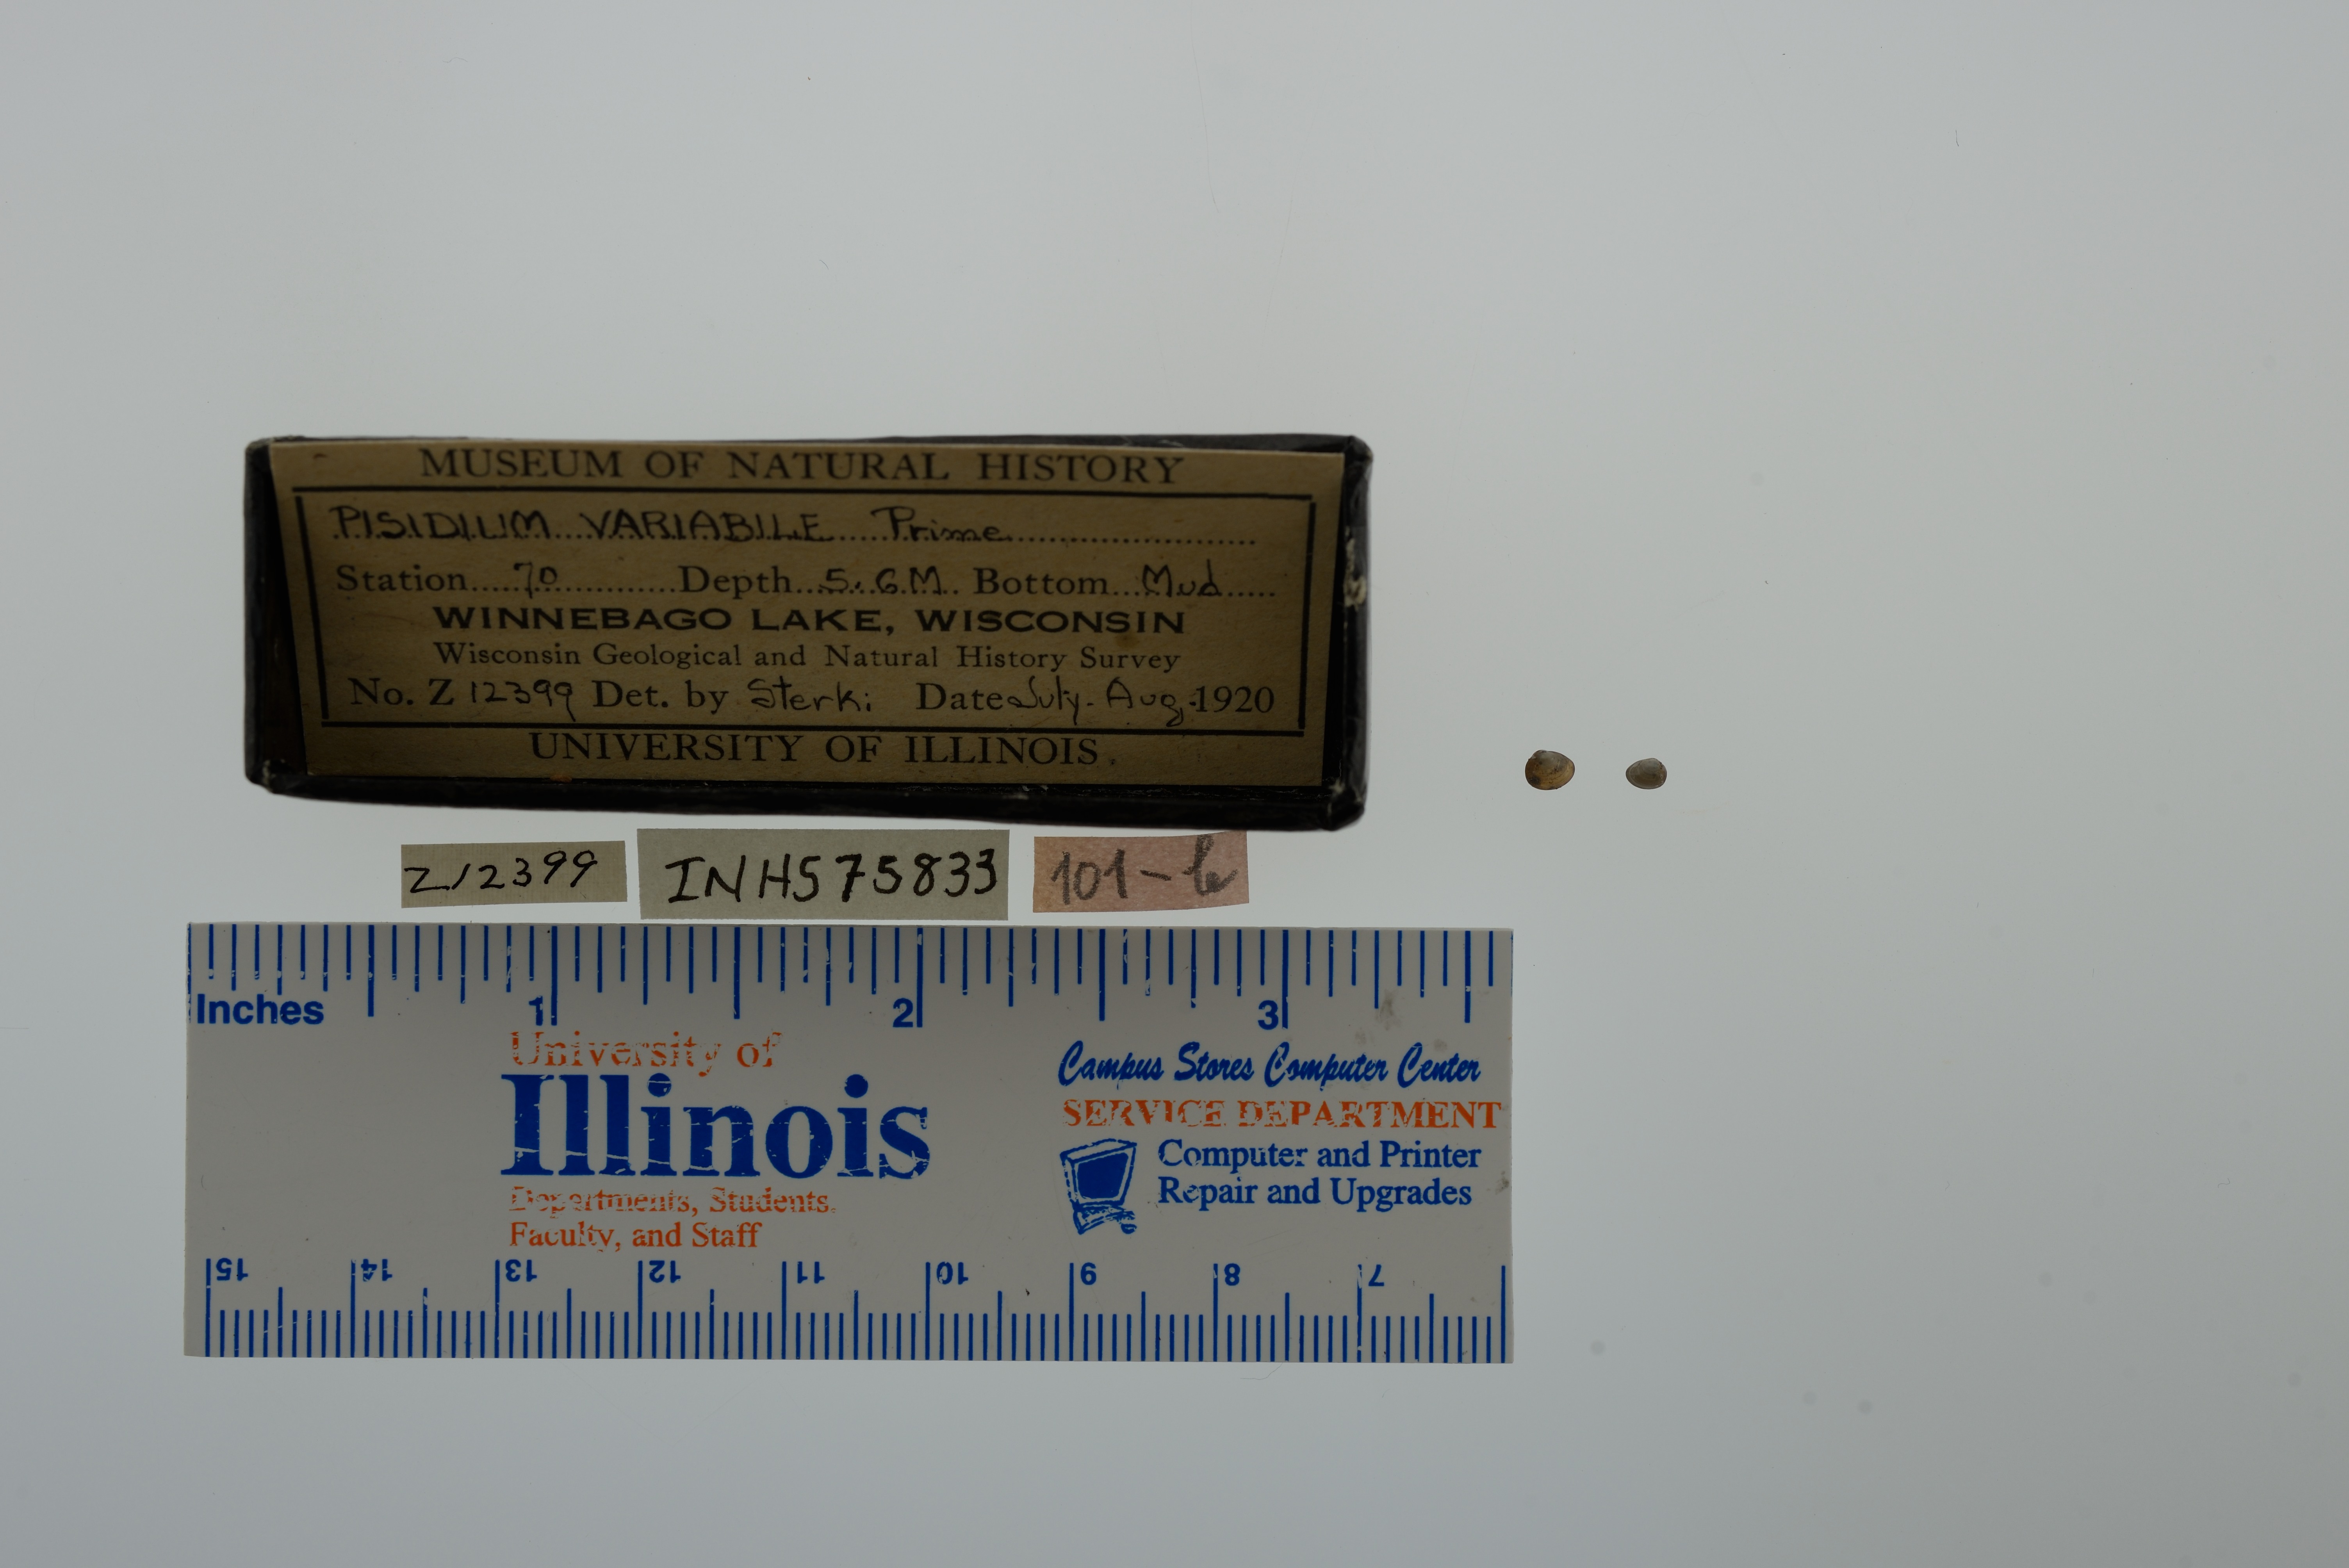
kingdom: Animalia
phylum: Mollusca
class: Bivalvia
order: Sphaeriida
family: Sphaeriidae
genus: Euglesa
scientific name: Euglesa variabilis
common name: Triangular peaclam
